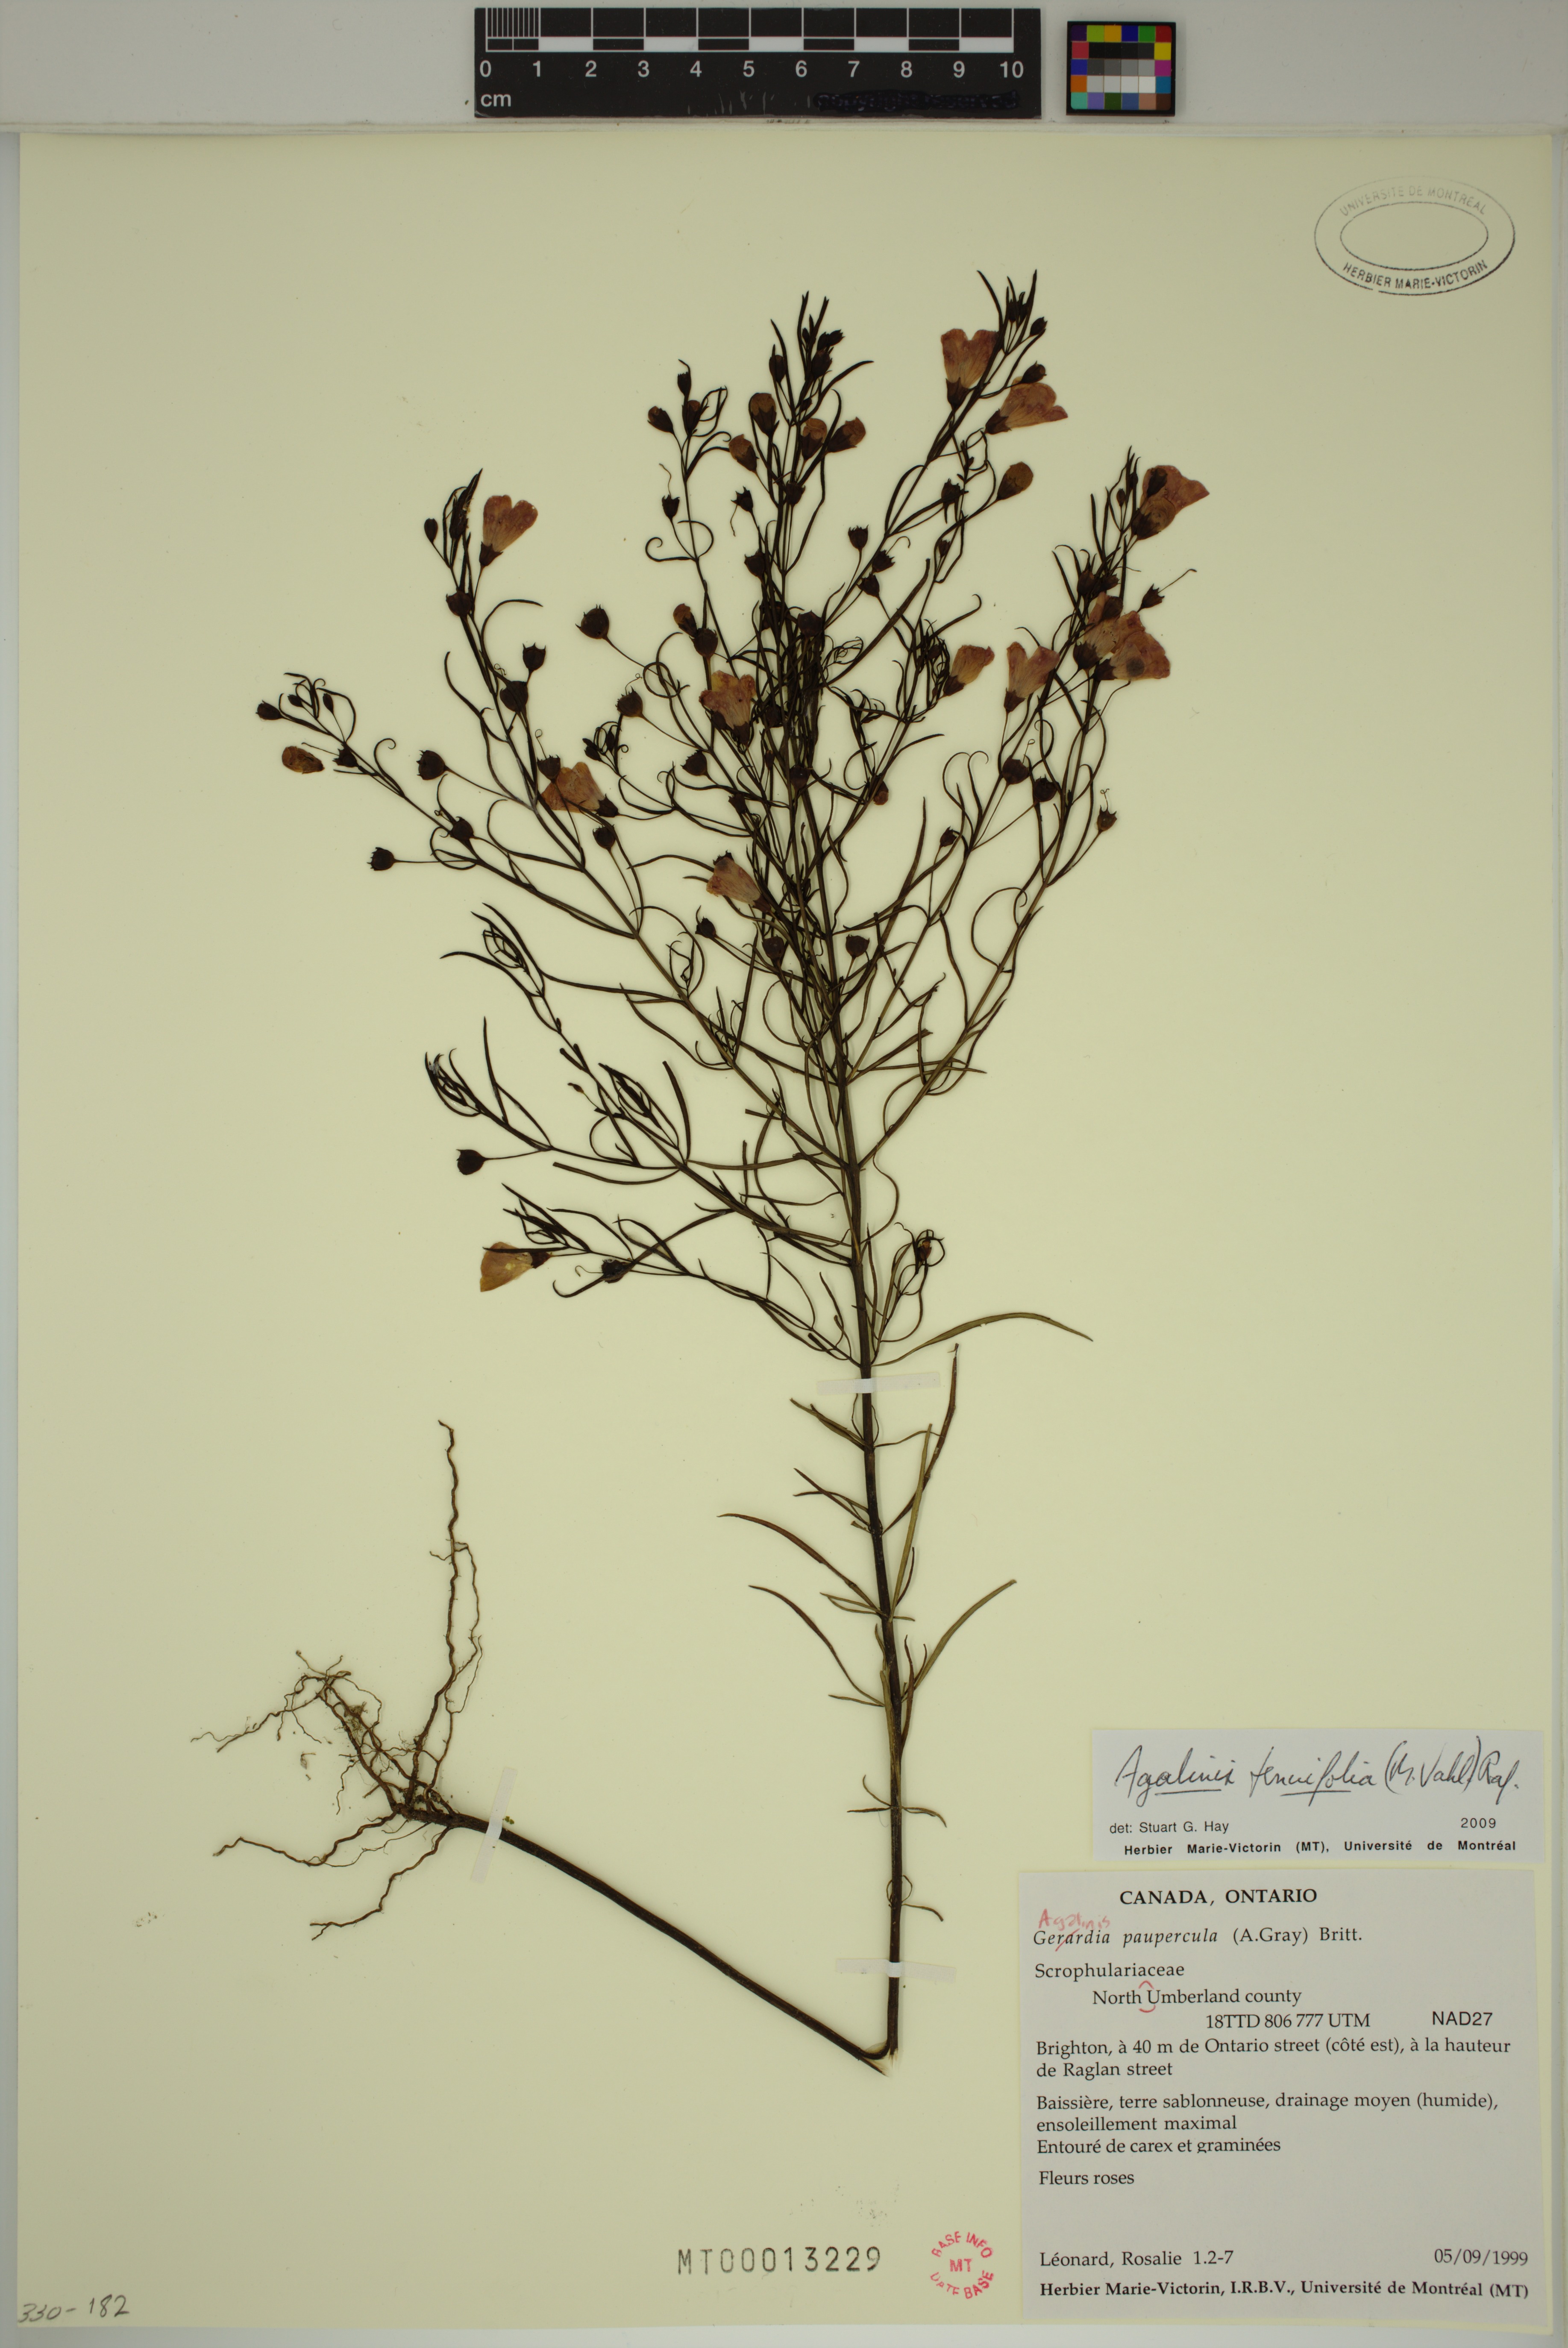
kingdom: Plantae
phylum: Tracheophyta
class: Magnoliopsida
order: Lamiales
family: Orobanchaceae
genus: Agalinis
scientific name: Agalinis tenuifolia
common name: Slender agalinis
